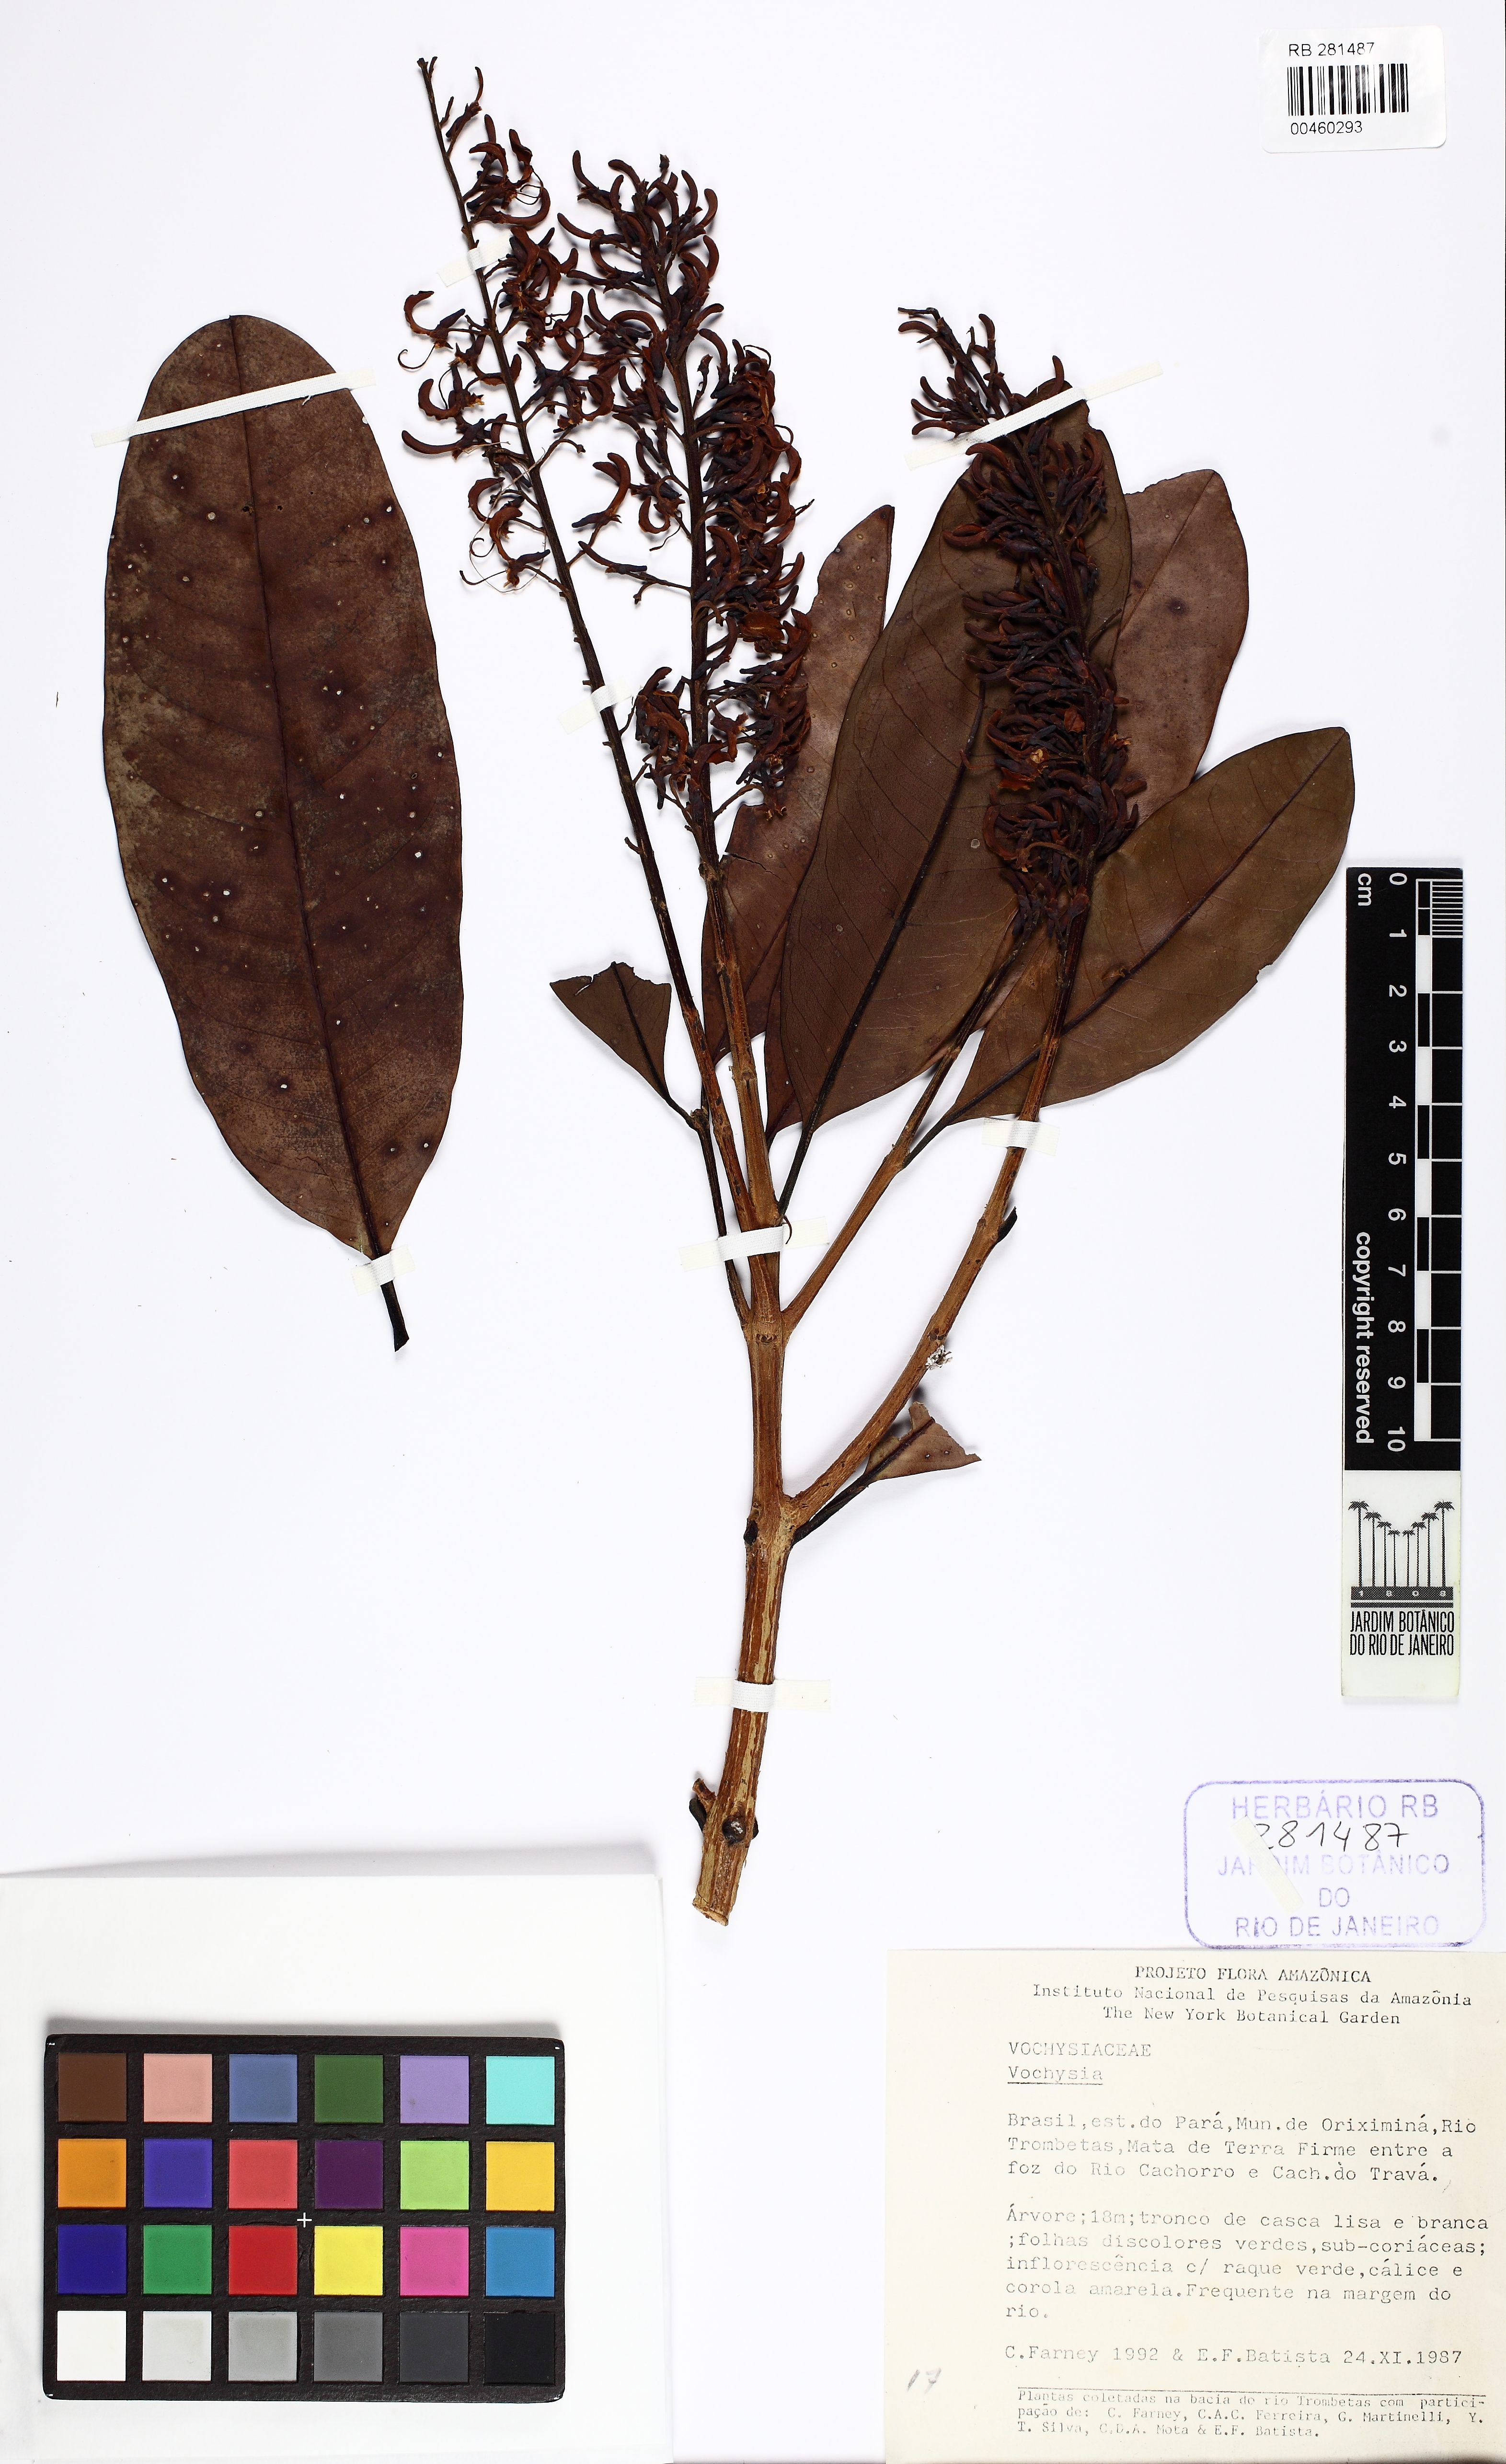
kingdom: Plantae
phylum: Tracheophyta
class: Magnoliopsida
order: Myrtales
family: Vochysiaceae
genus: Vochysia
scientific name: Vochysia
